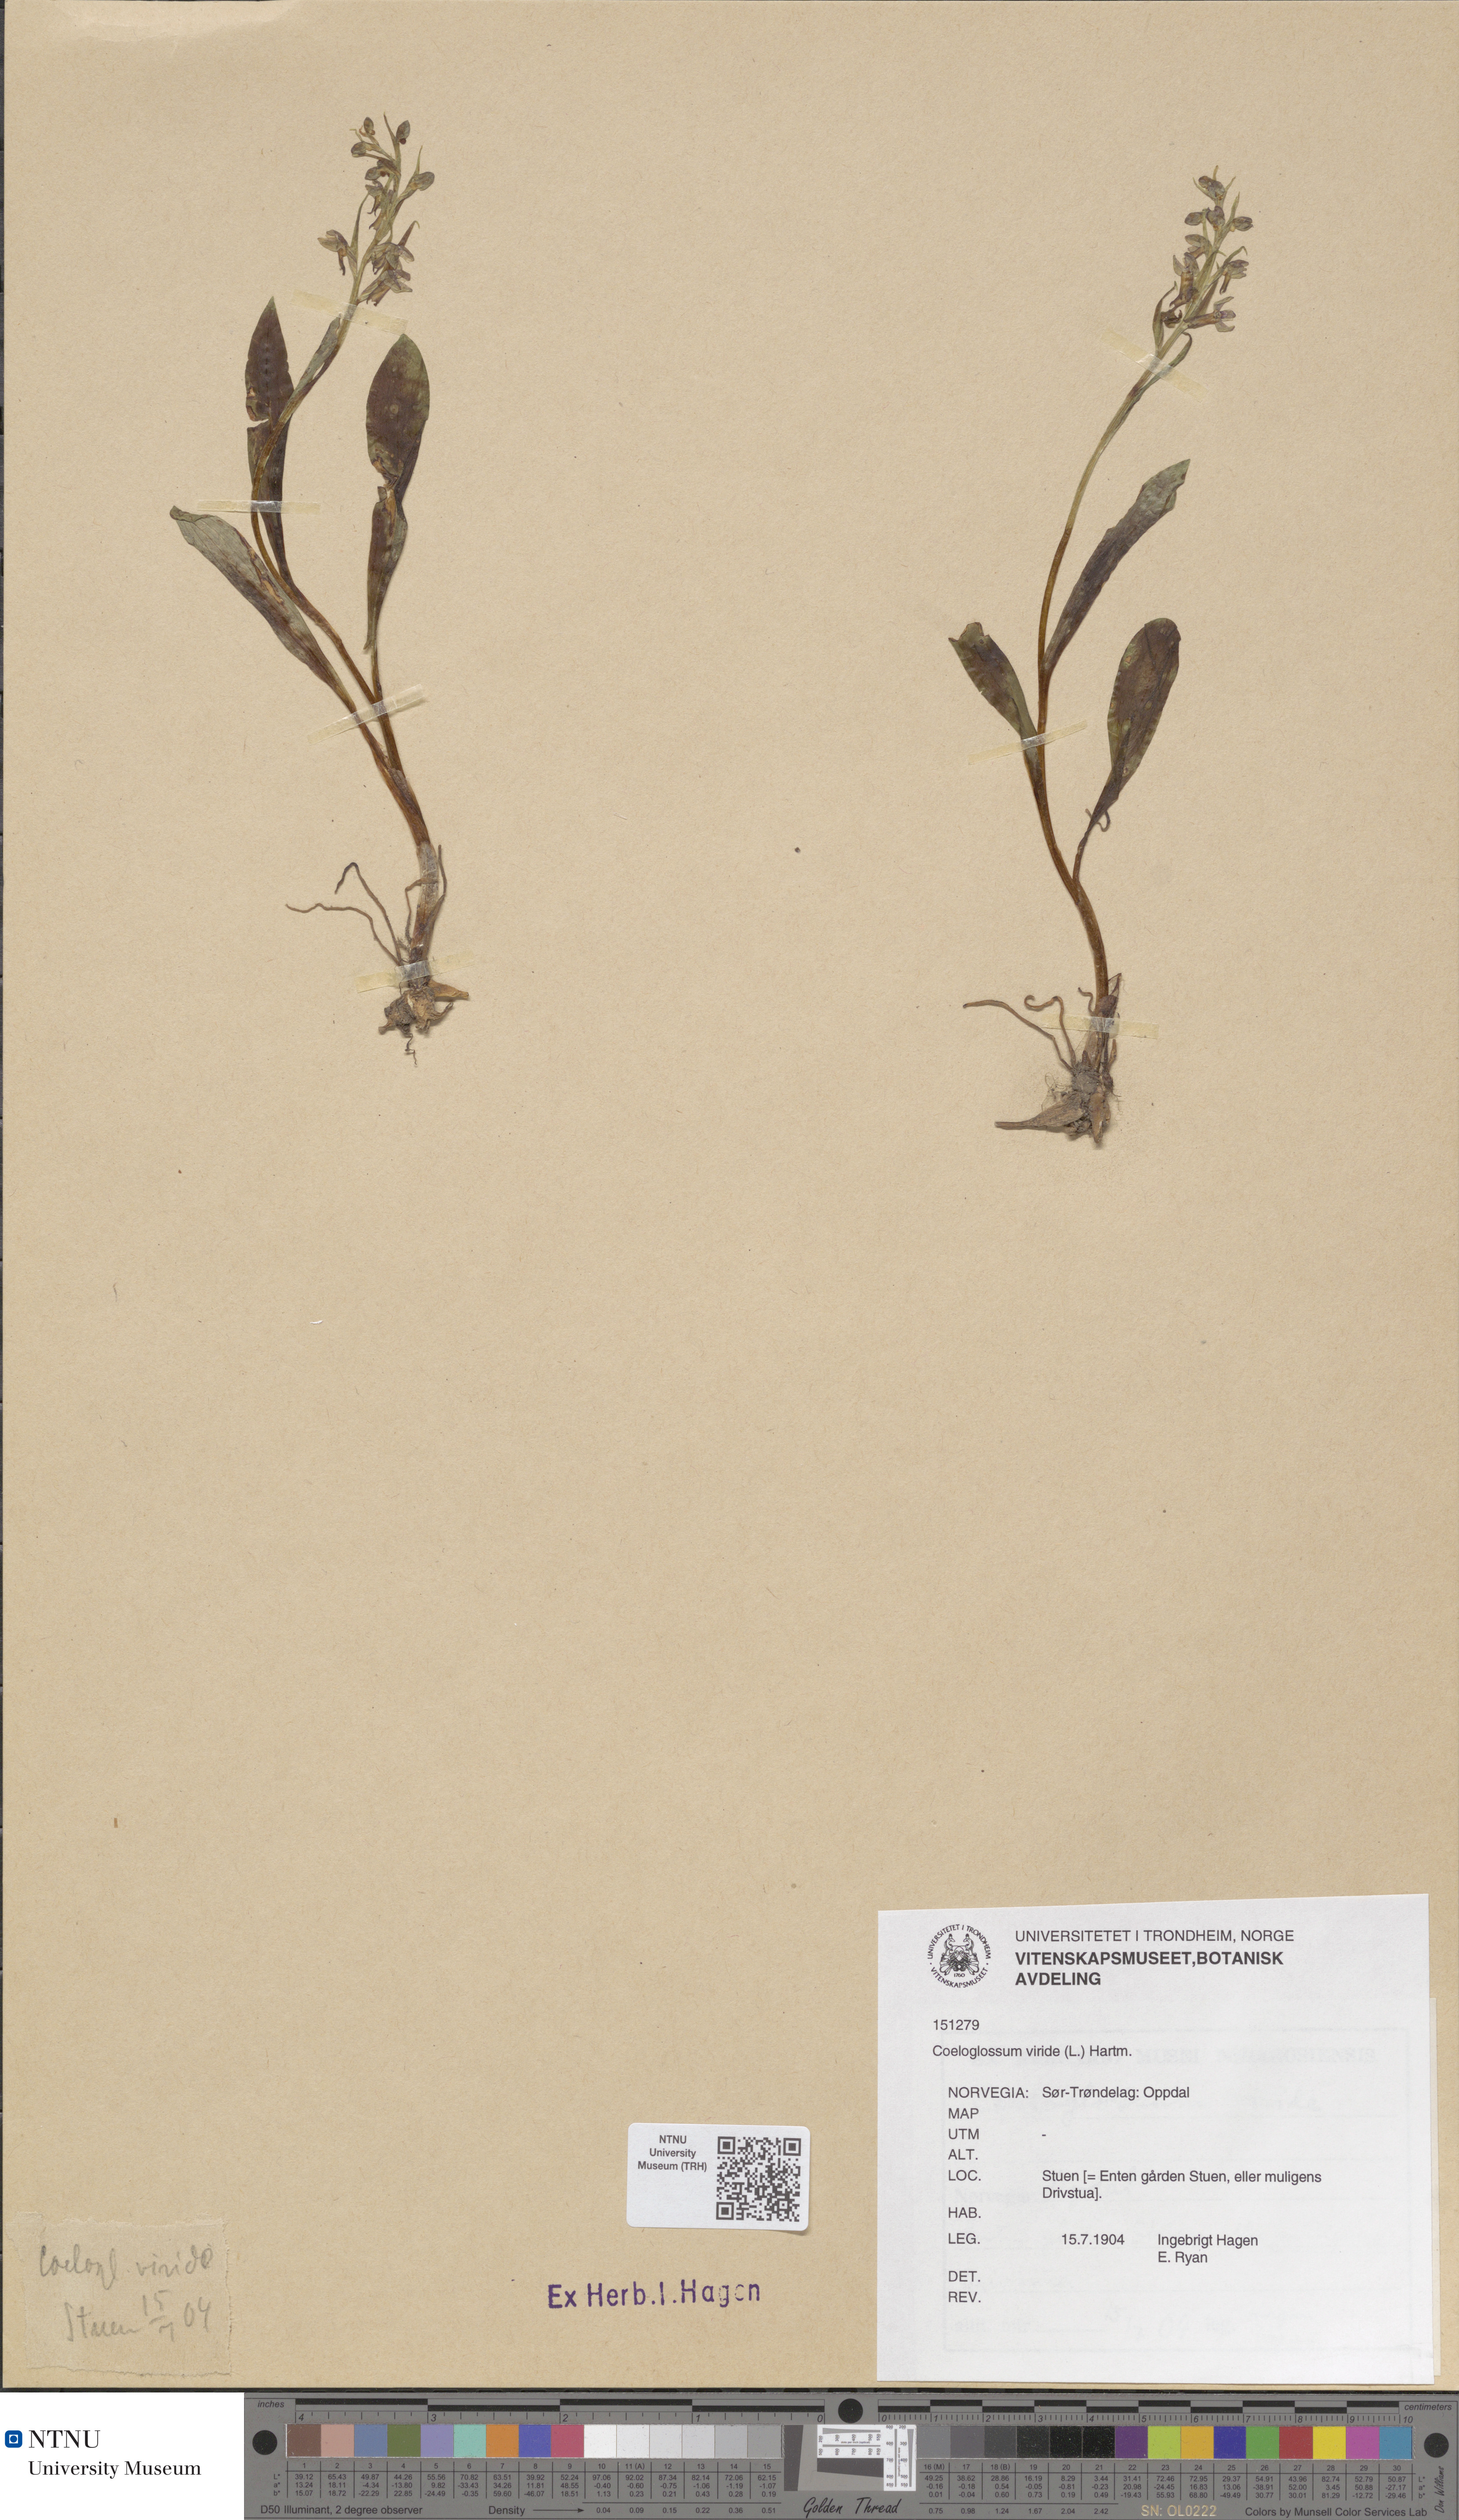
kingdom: Plantae
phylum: Tracheophyta
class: Liliopsida
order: Asparagales
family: Orchidaceae
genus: Dactylorhiza
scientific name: Dactylorhiza viridis
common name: Longbract frog orchid
